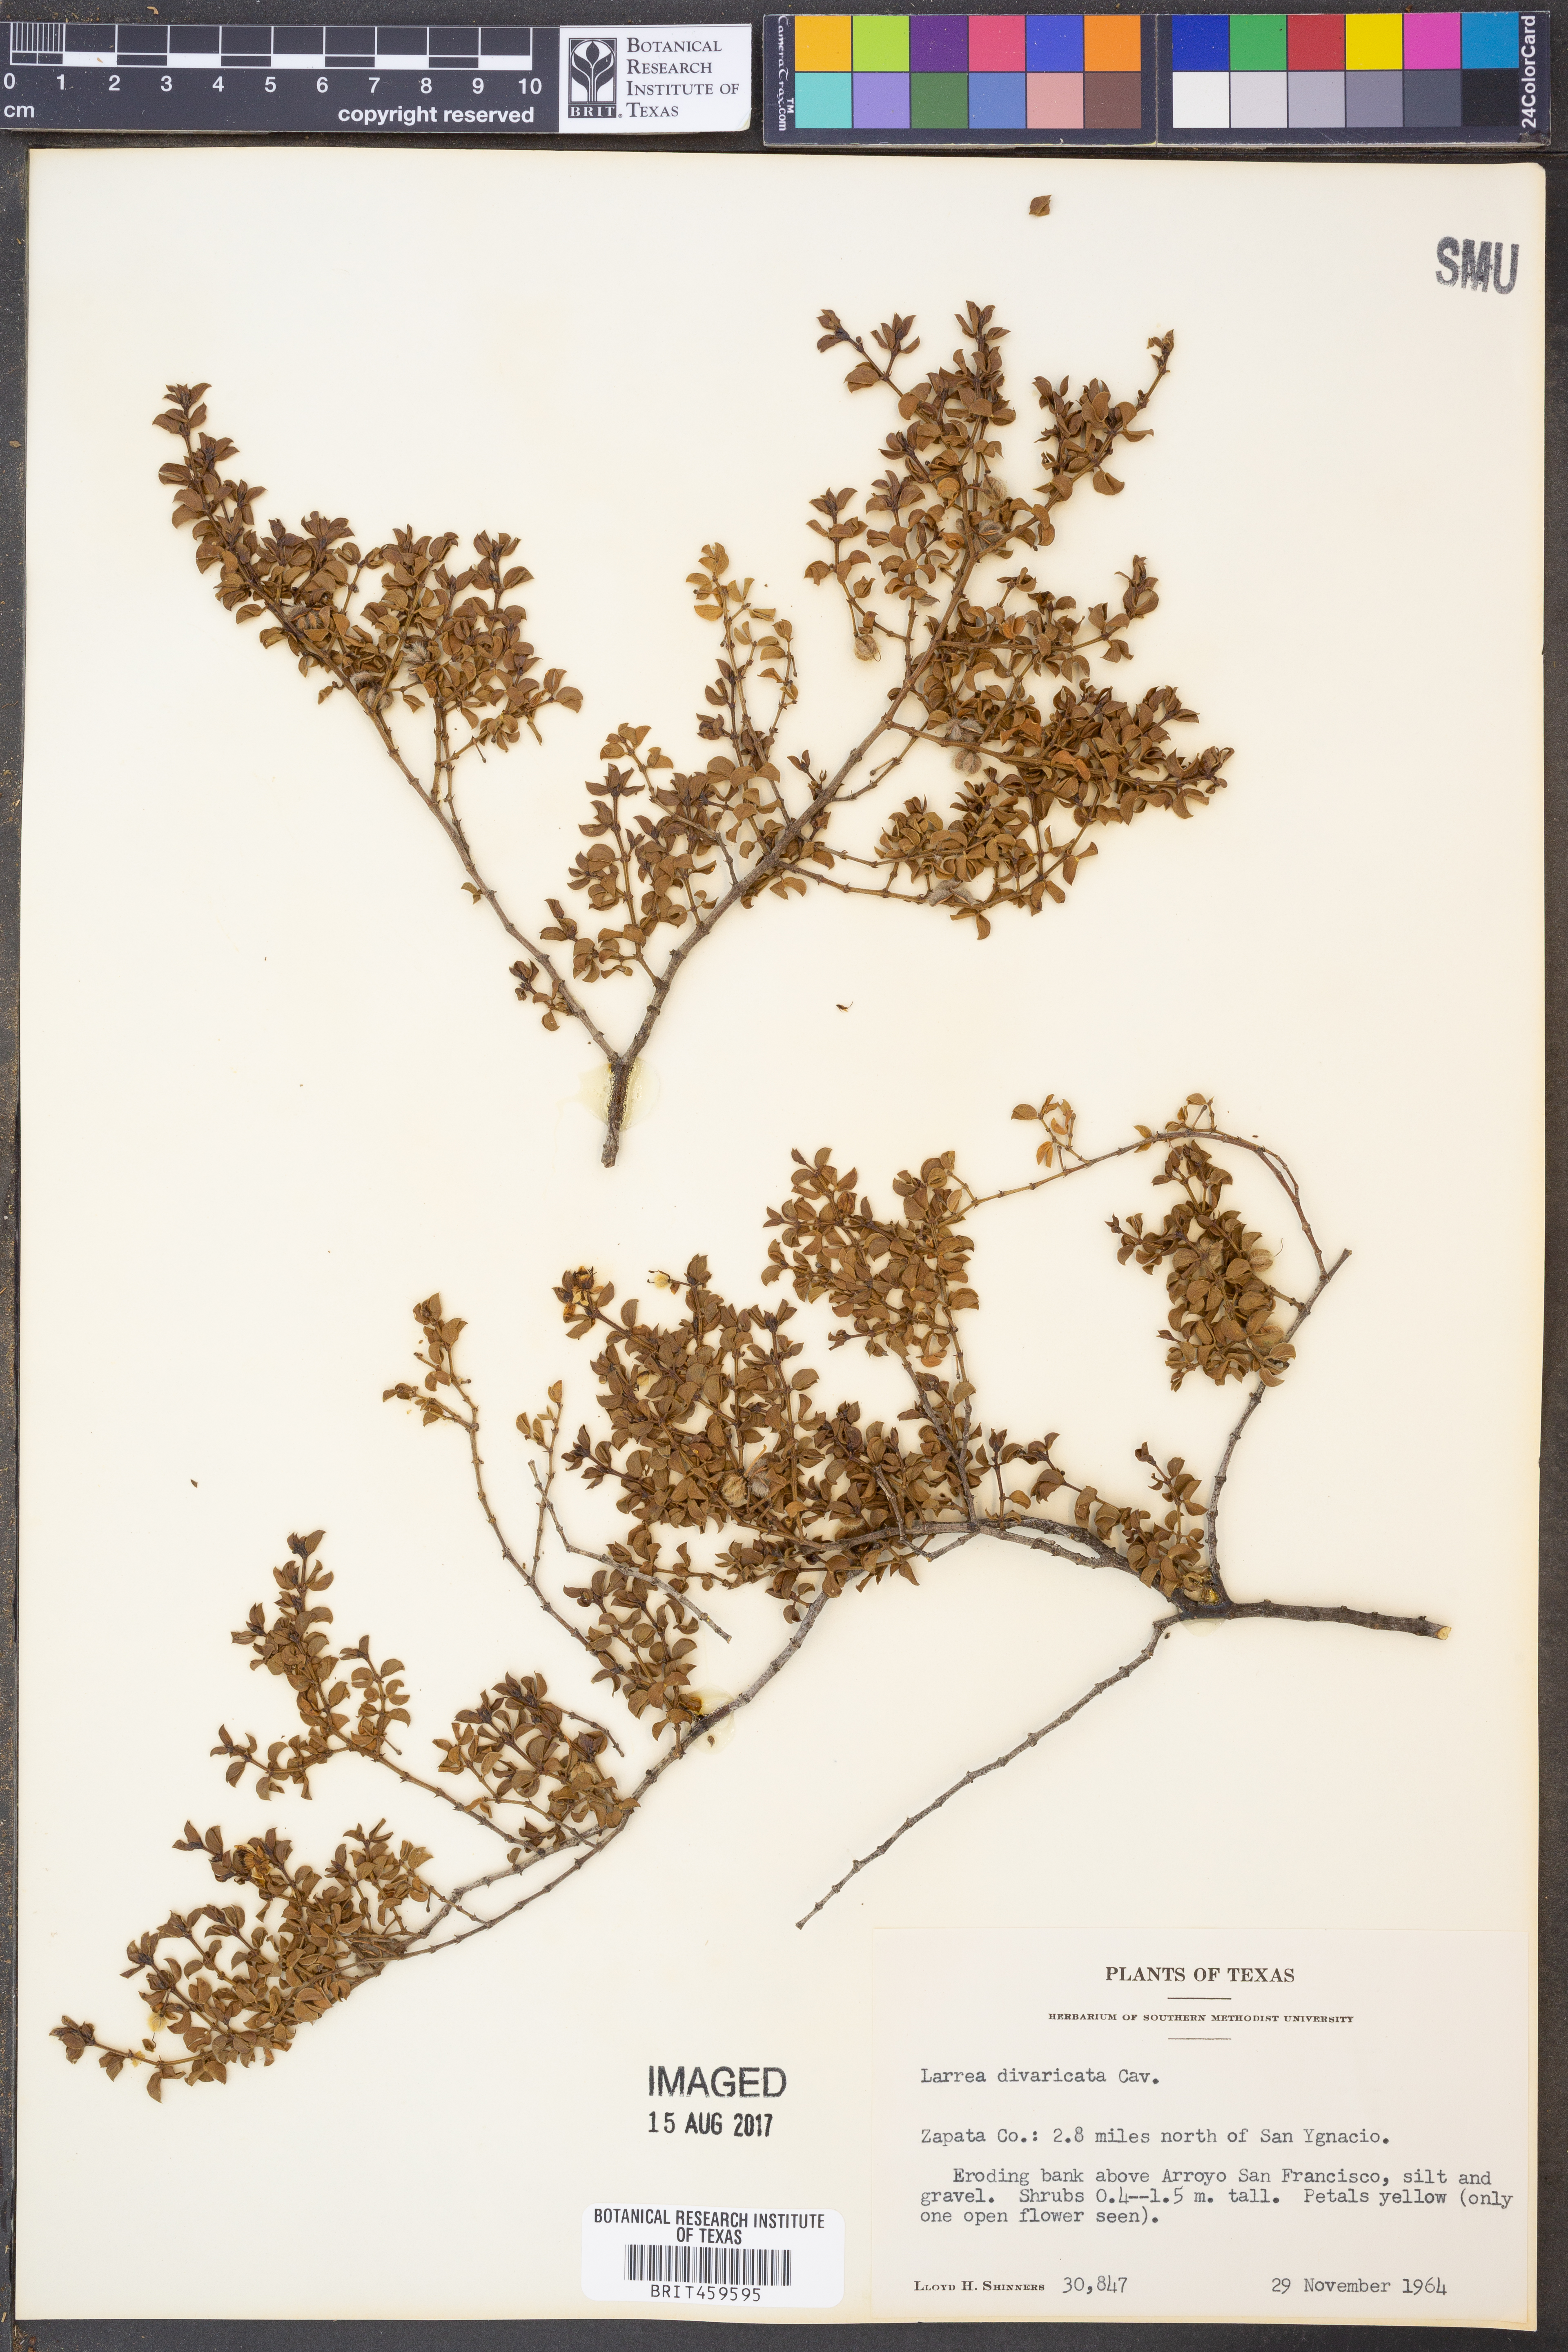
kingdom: Plantae
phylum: Tracheophyta
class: Magnoliopsida
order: Zygophyllales
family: Zygophyllaceae
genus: Larrea
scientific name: Larrea divaricata
